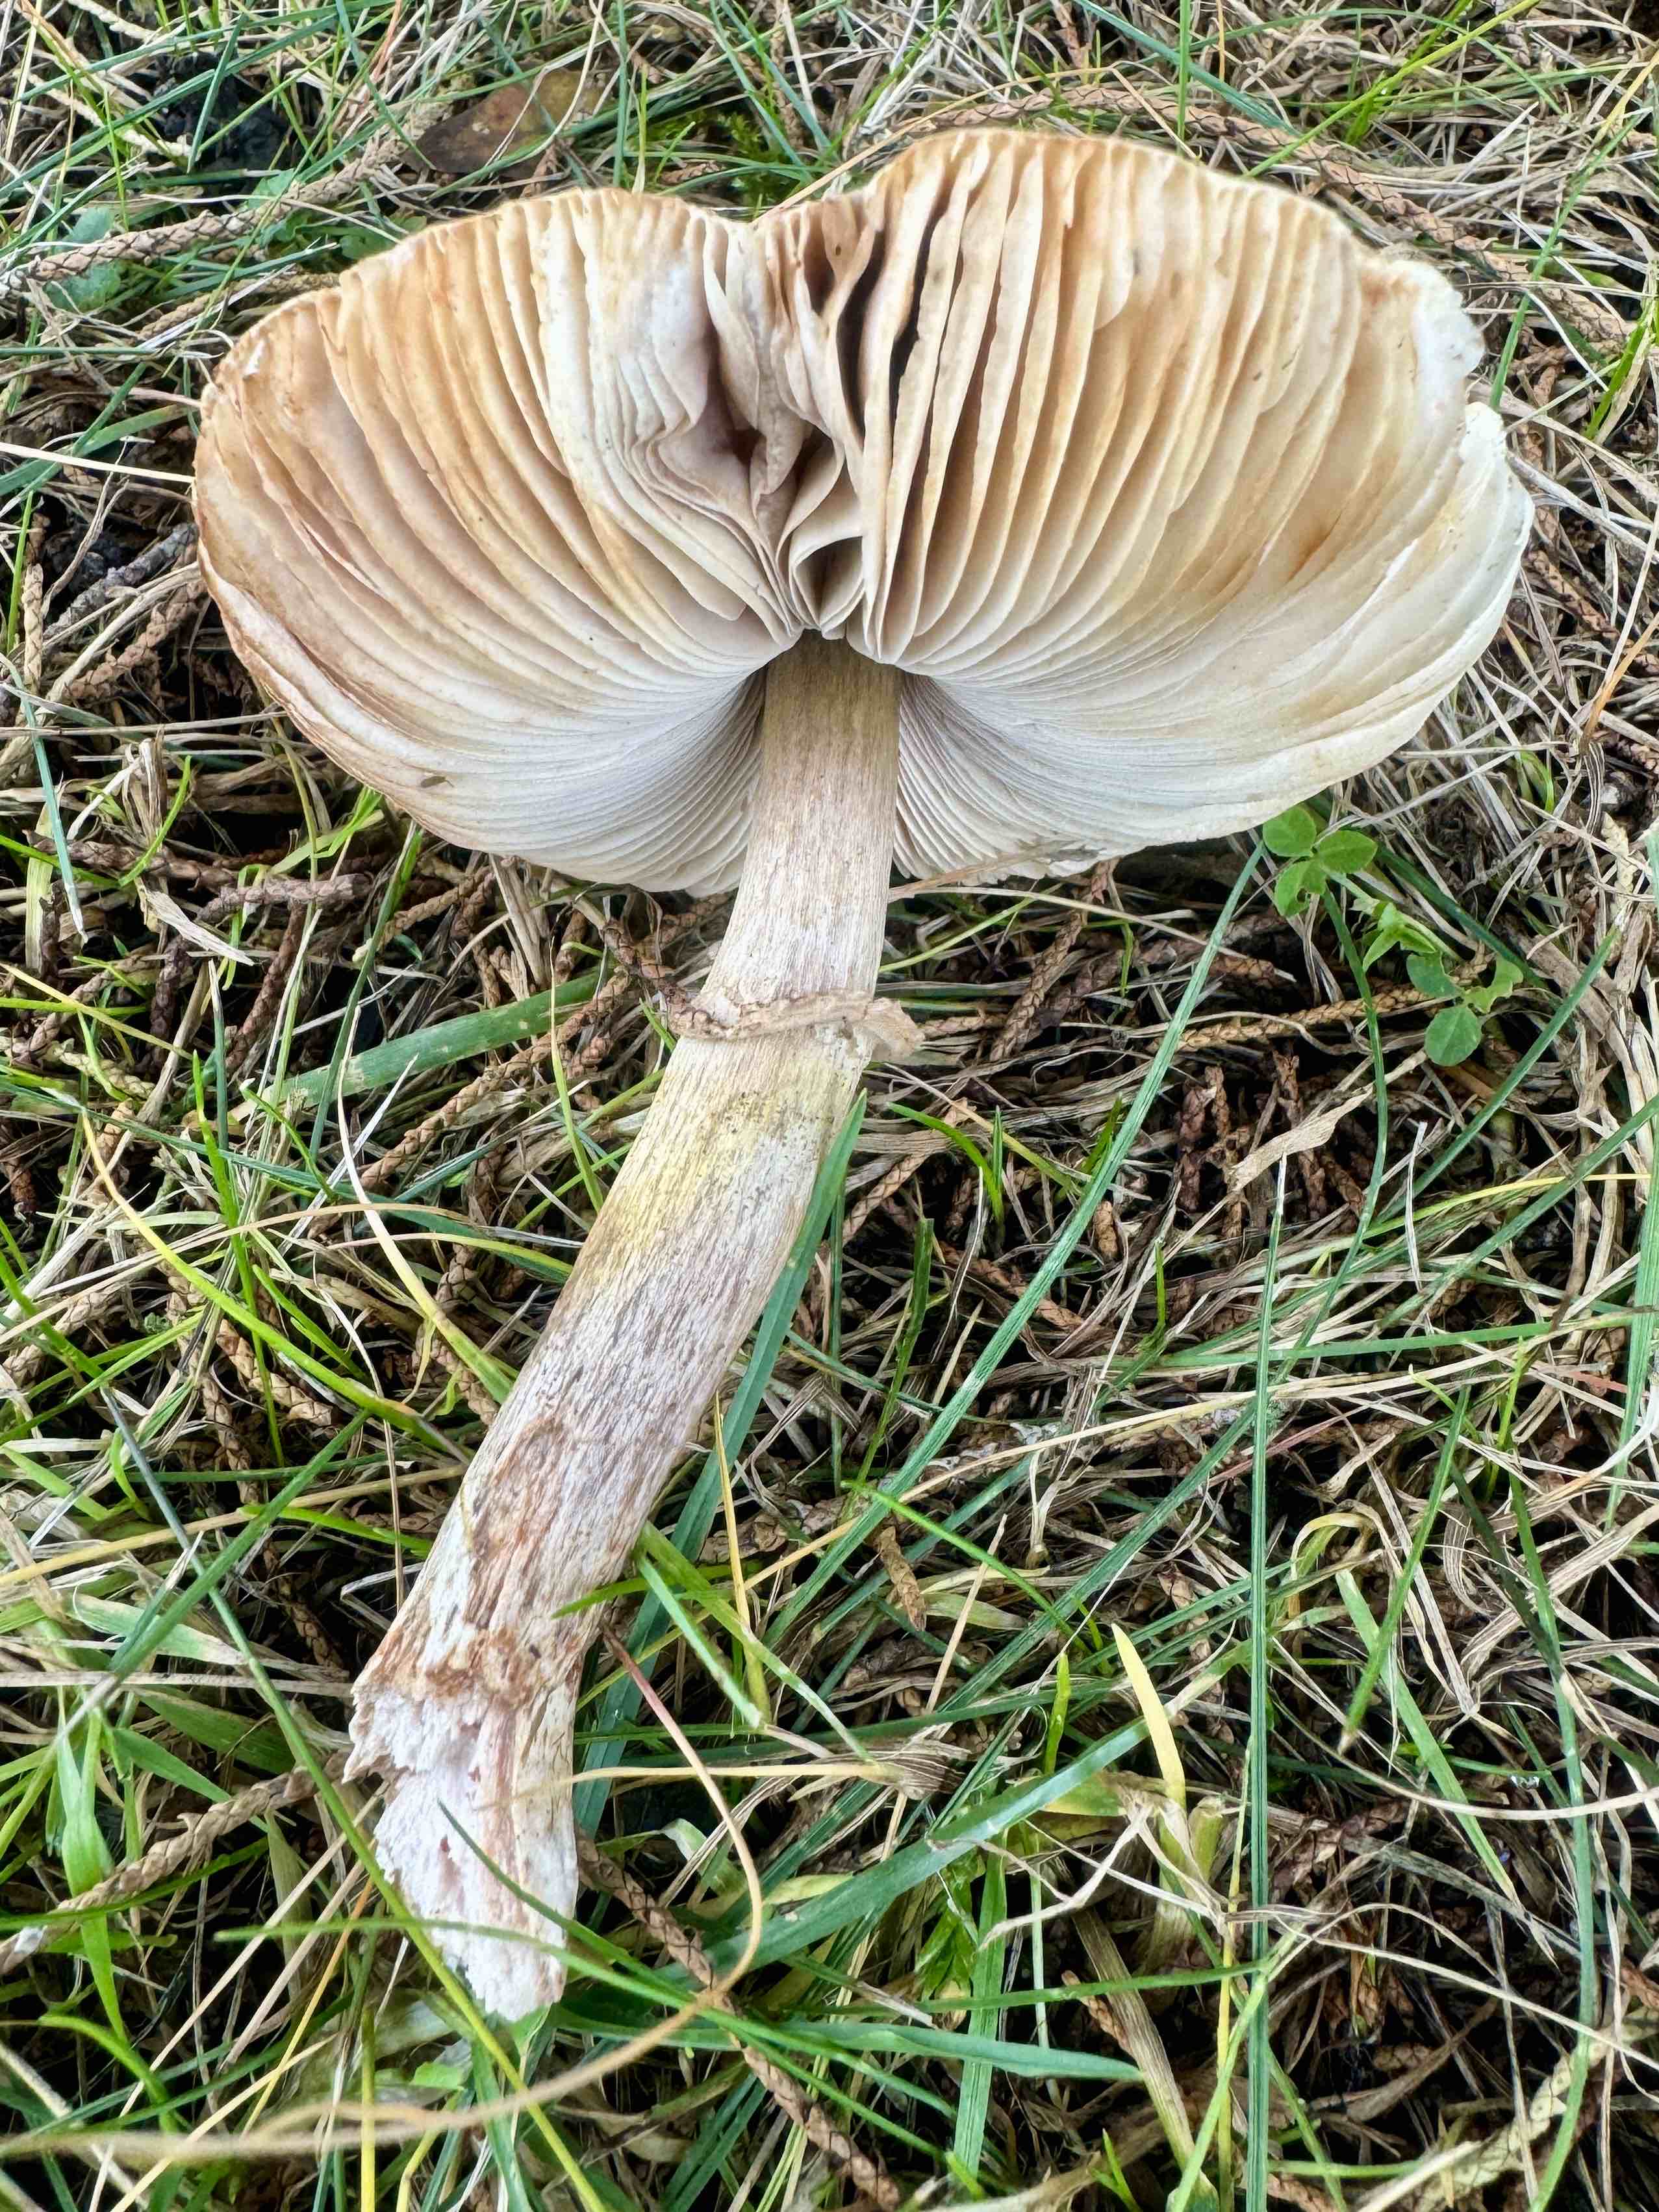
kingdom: Fungi
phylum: Basidiomycota
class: Agaricomycetes
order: Agaricales
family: Agaricaceae
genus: Leucoagaricus
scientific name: Leucoagaricus leucothites
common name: rosabladet silkehat
